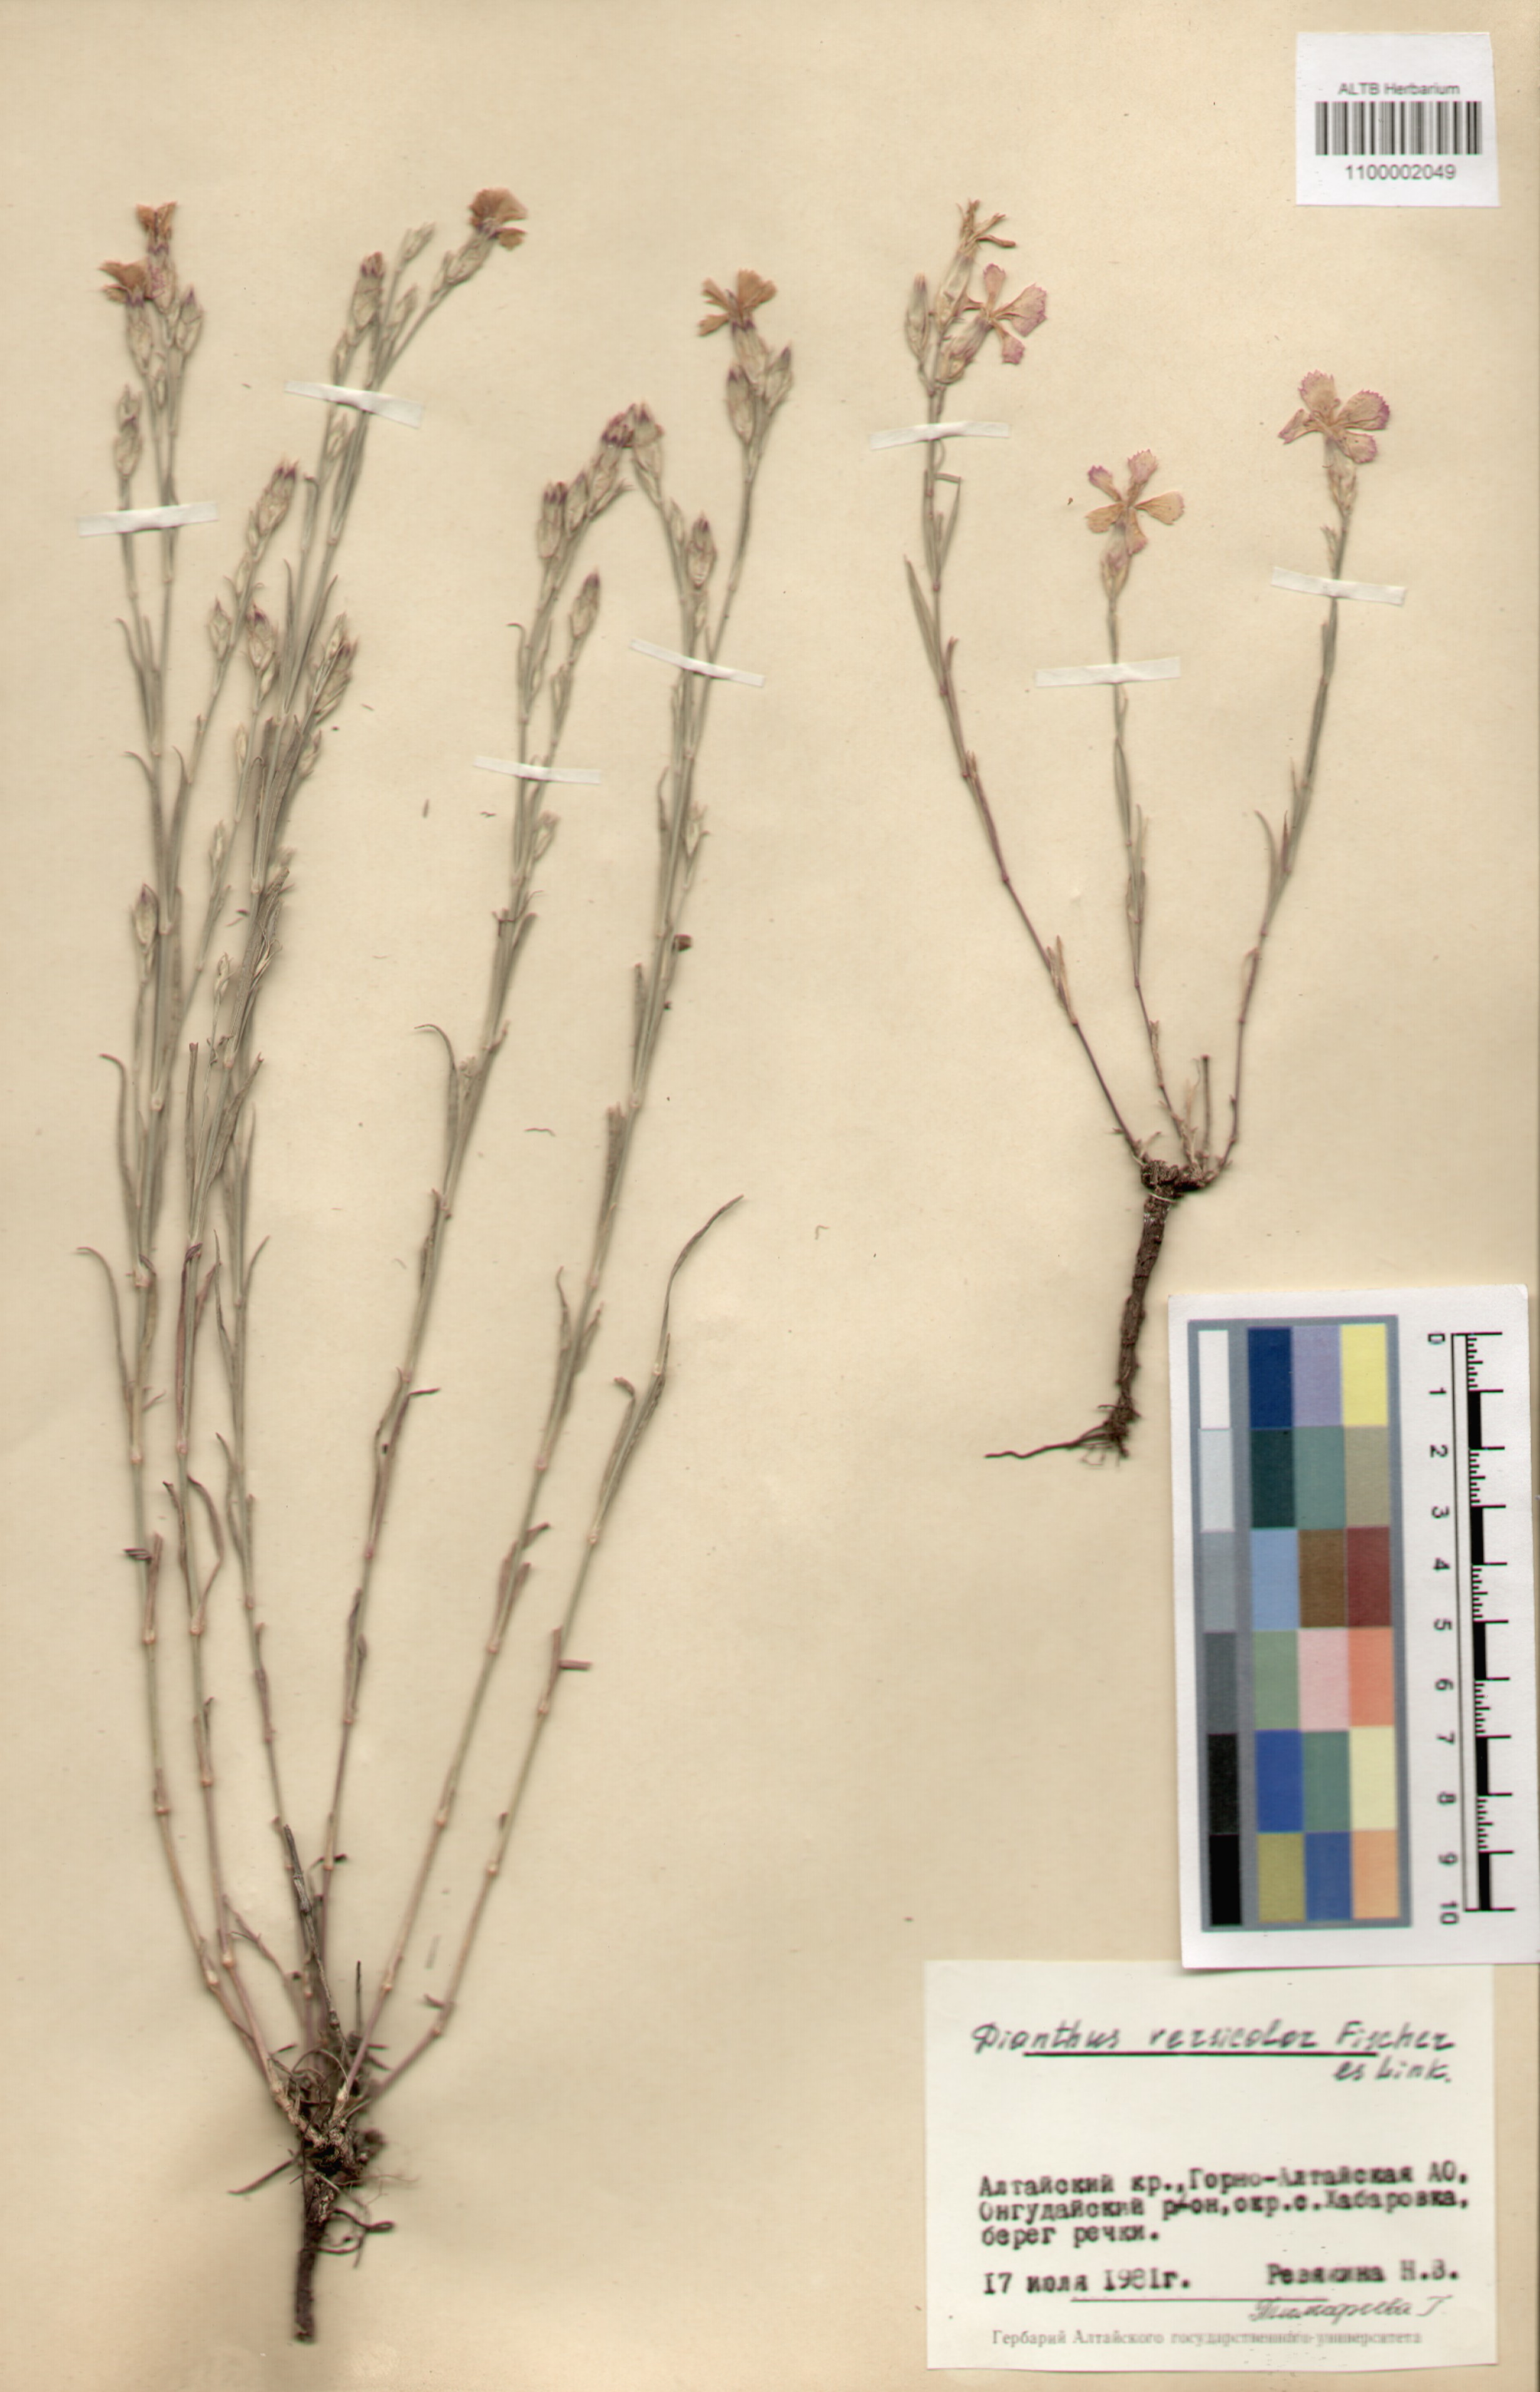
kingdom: Plantae
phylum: Tracheophyta
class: Magnoliopsida
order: Caryophyllales
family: Caryophyllaceae
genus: Dianthus
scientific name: Dianthus chinensis
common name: Rainbow pink
